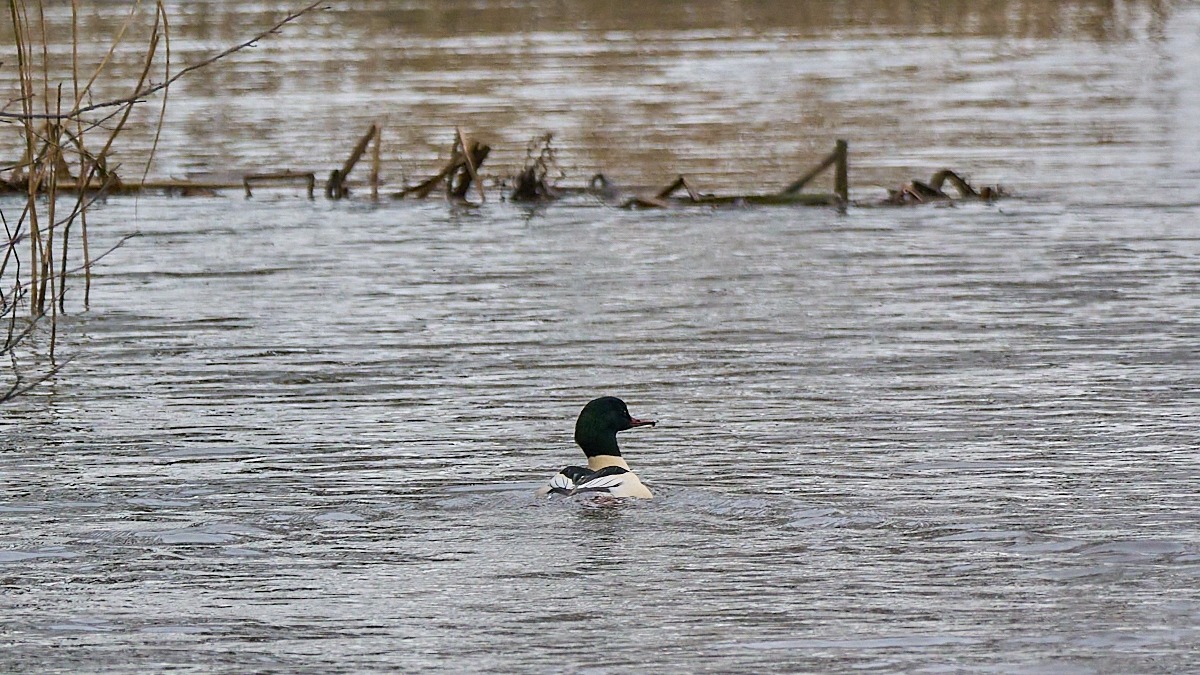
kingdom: Animalia
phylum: Chordata
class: Aves
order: Anseriformes
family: Anatidae
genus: Mergus
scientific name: Mergus merganser
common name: Stor skallesluger
